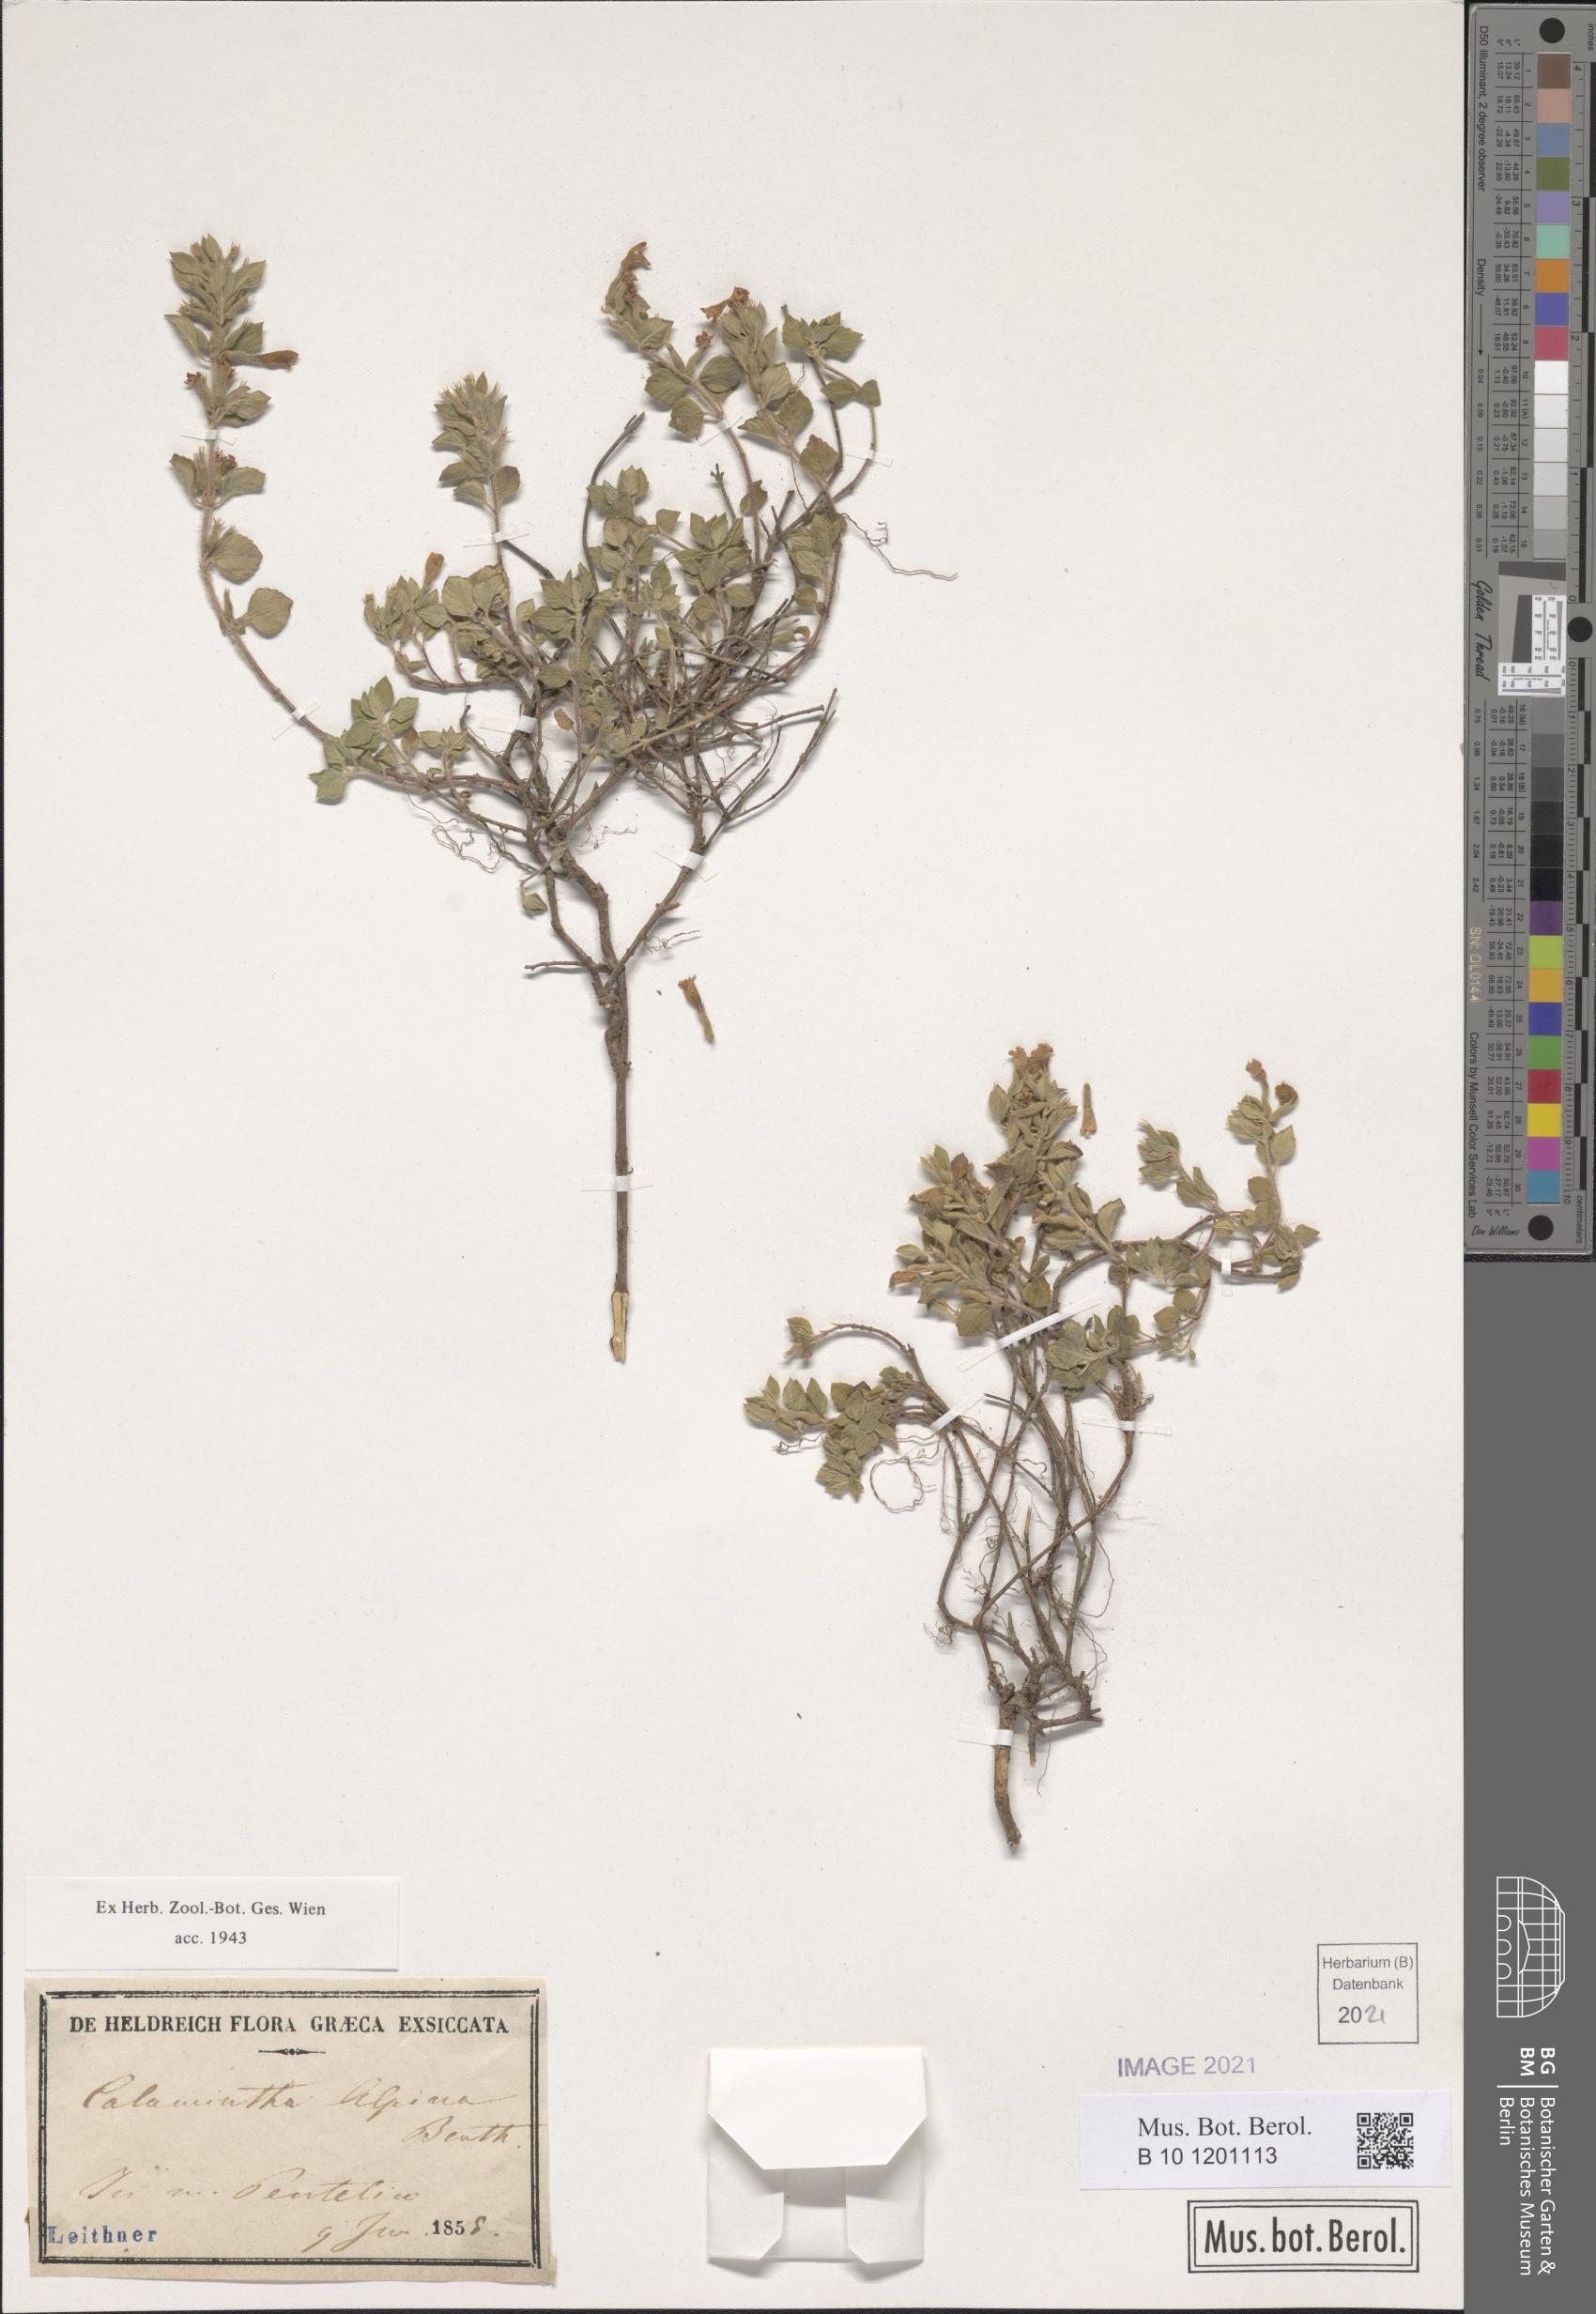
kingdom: Plantae
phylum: Tracheophyta
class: Magnoliopsida
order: Lamiales
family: Lamiaceae
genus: Clinopodium
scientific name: Clinopodium alpinum
